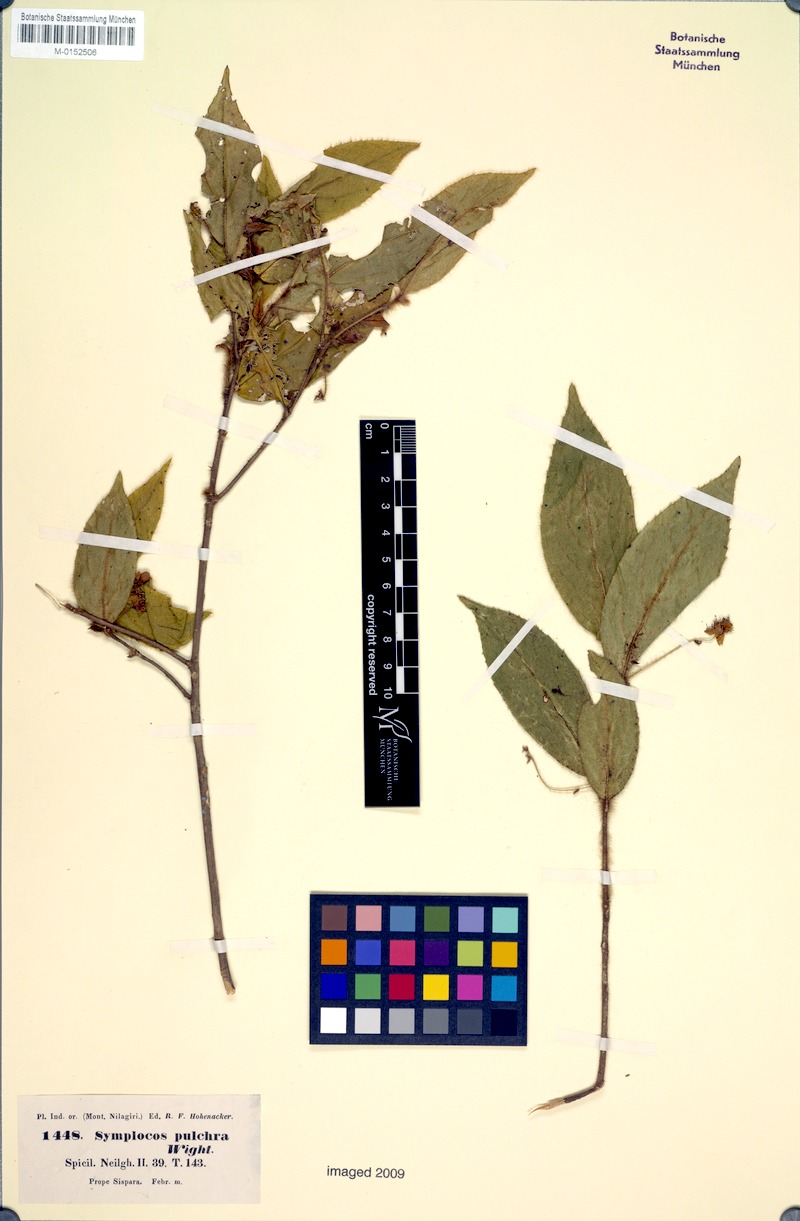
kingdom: Plantae
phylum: Tracheophyta
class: Magnoliopsida
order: Ericales
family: Symplocaceae
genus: Symplocos
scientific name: Symplocos pulchra
